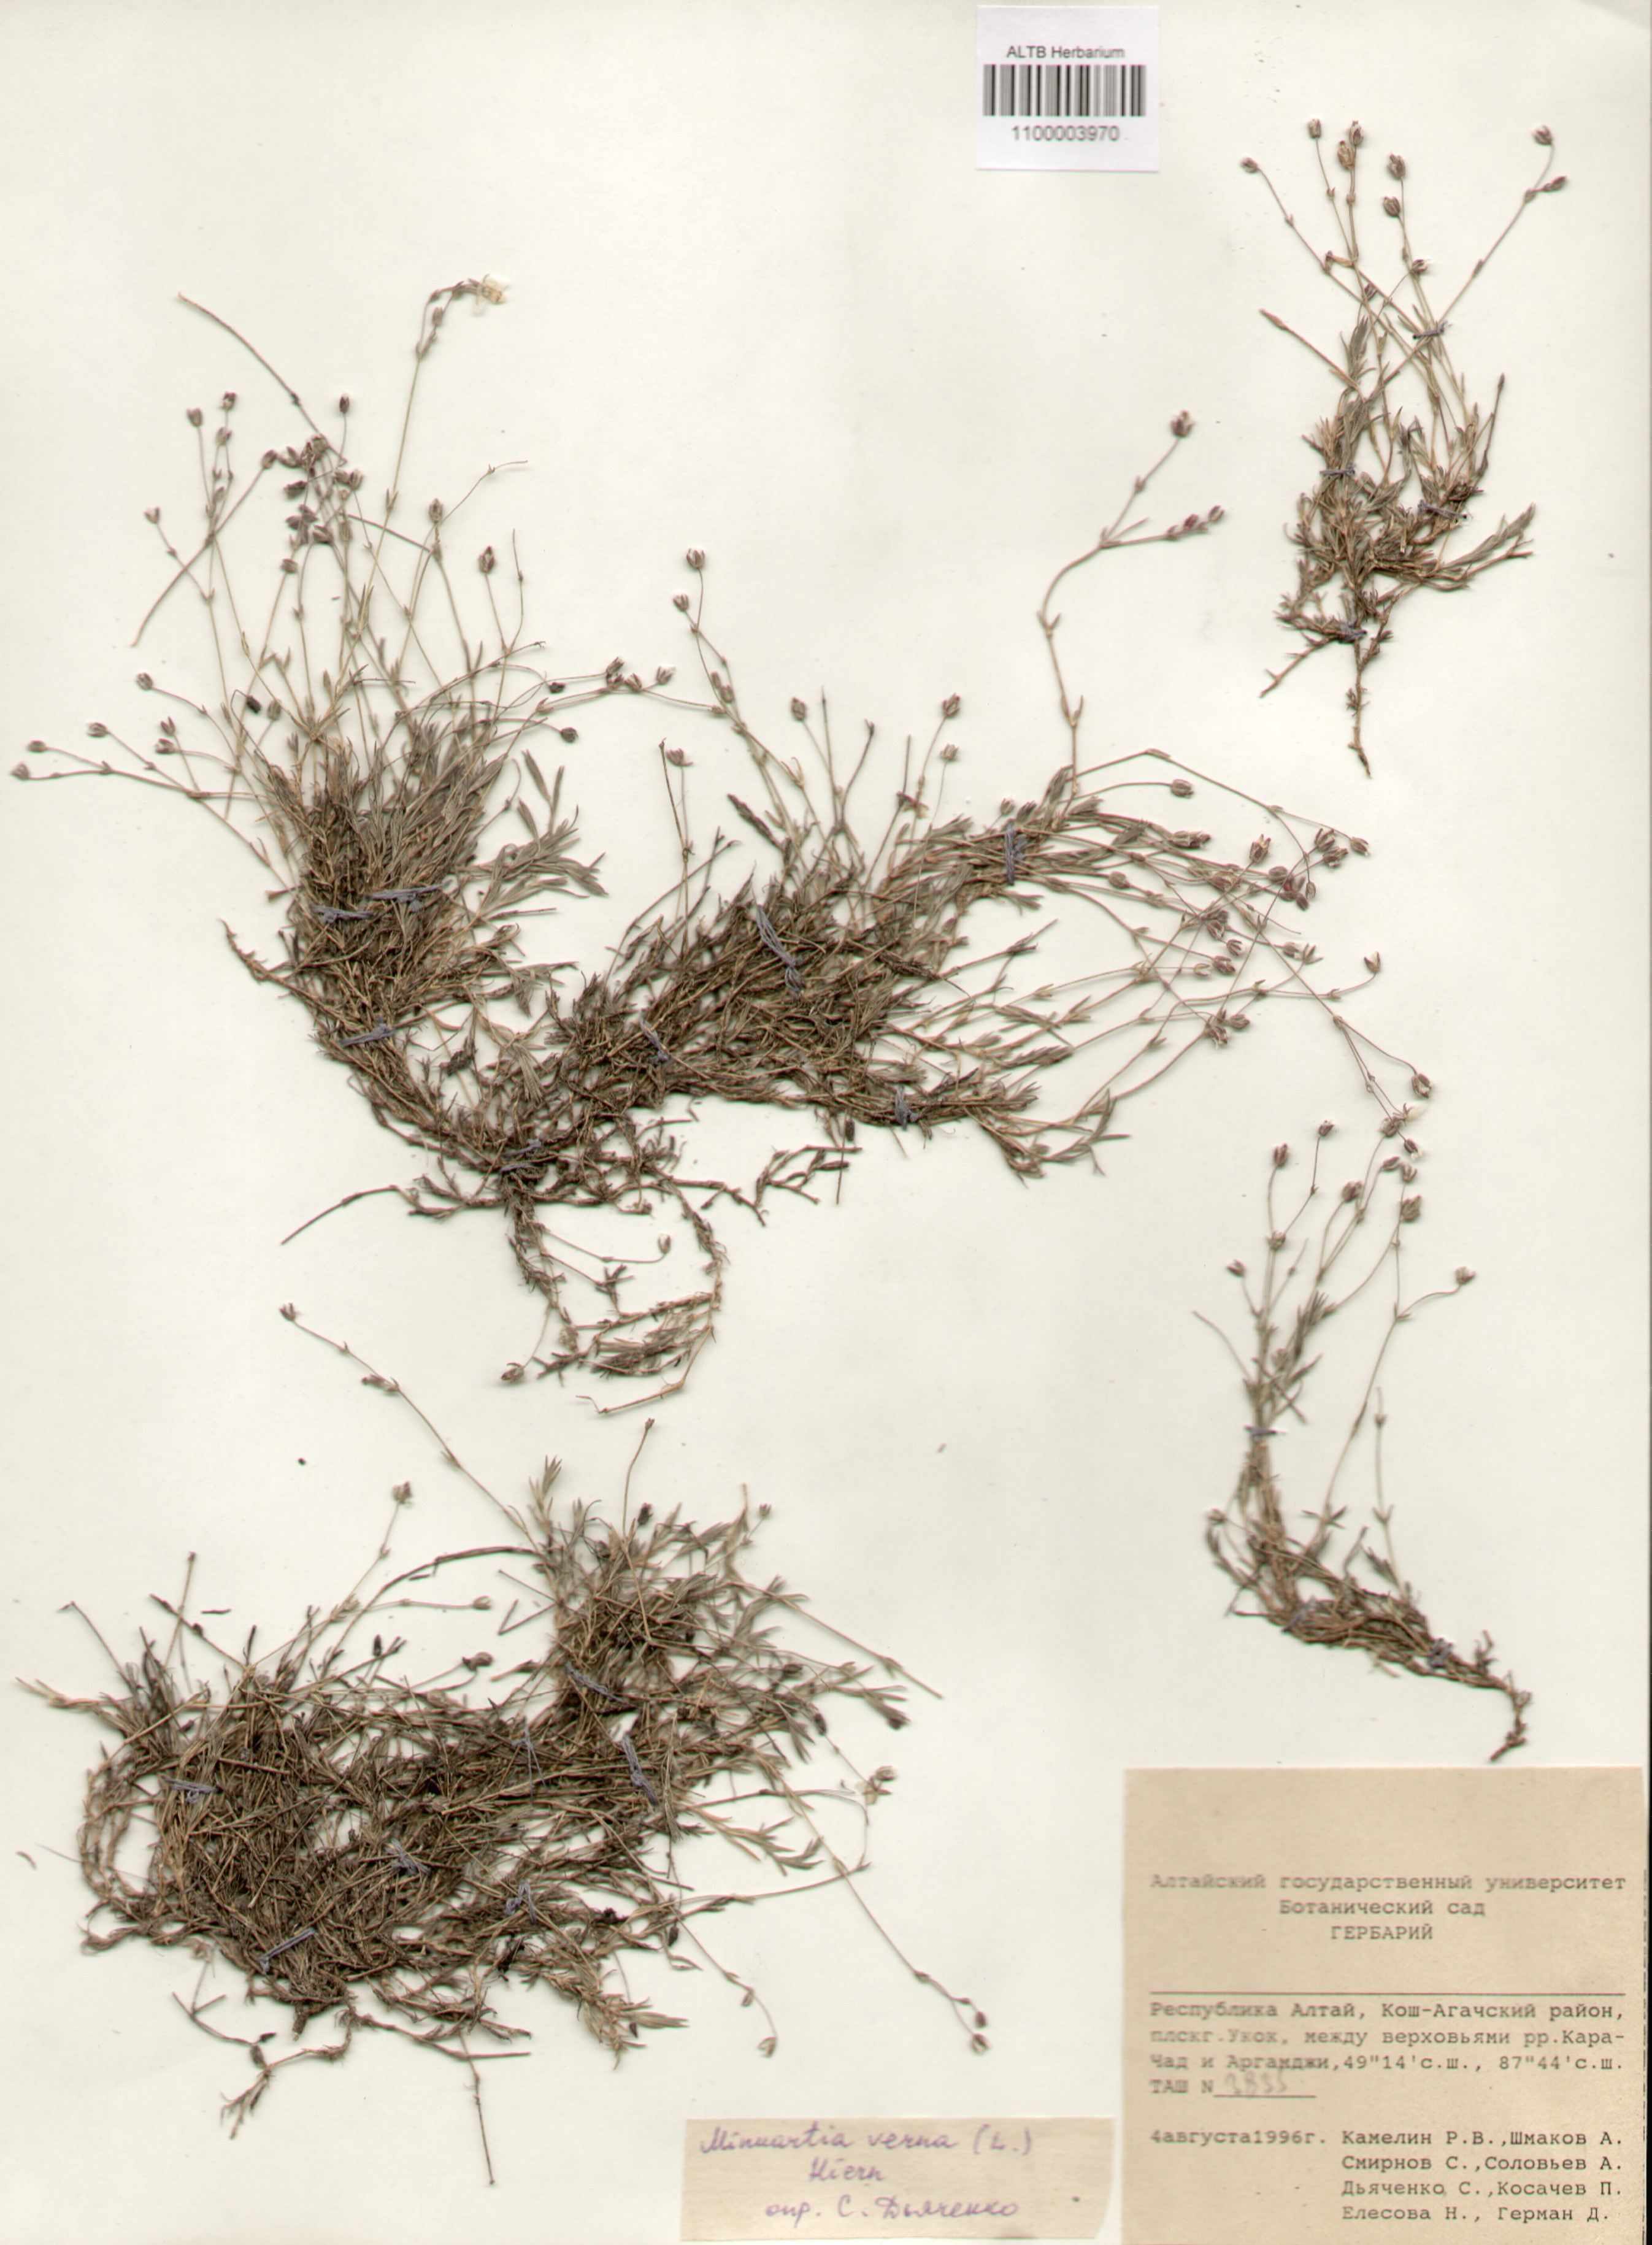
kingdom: Plantae
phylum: Tracheophyta
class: Magnoliopsida
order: Caryophyllales
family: Caryophyllaceae
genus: Sabulina
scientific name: Sabulina verna
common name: Spring sandwort
